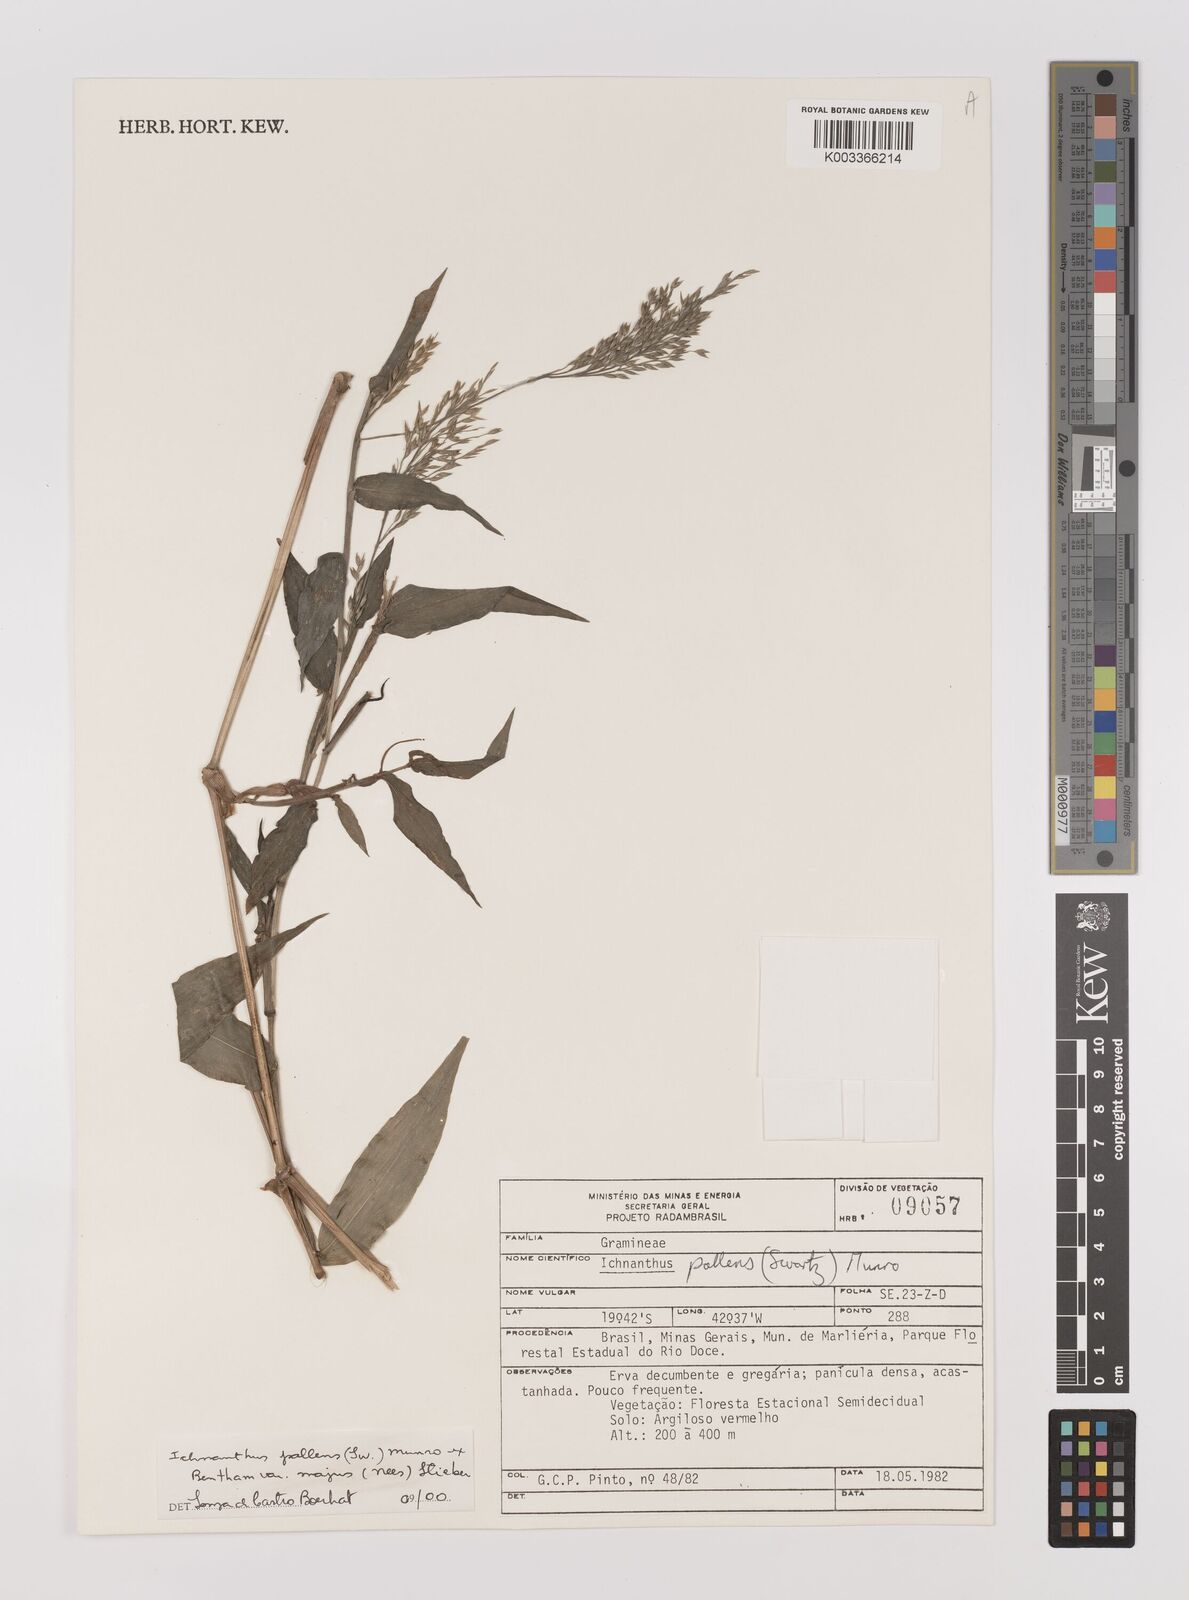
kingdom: Plantae
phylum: Tracheophyta
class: Liliopsida
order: Poales
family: Poaceae
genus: Ichnanthus
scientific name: Ichnanthus pallens
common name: Water grass
